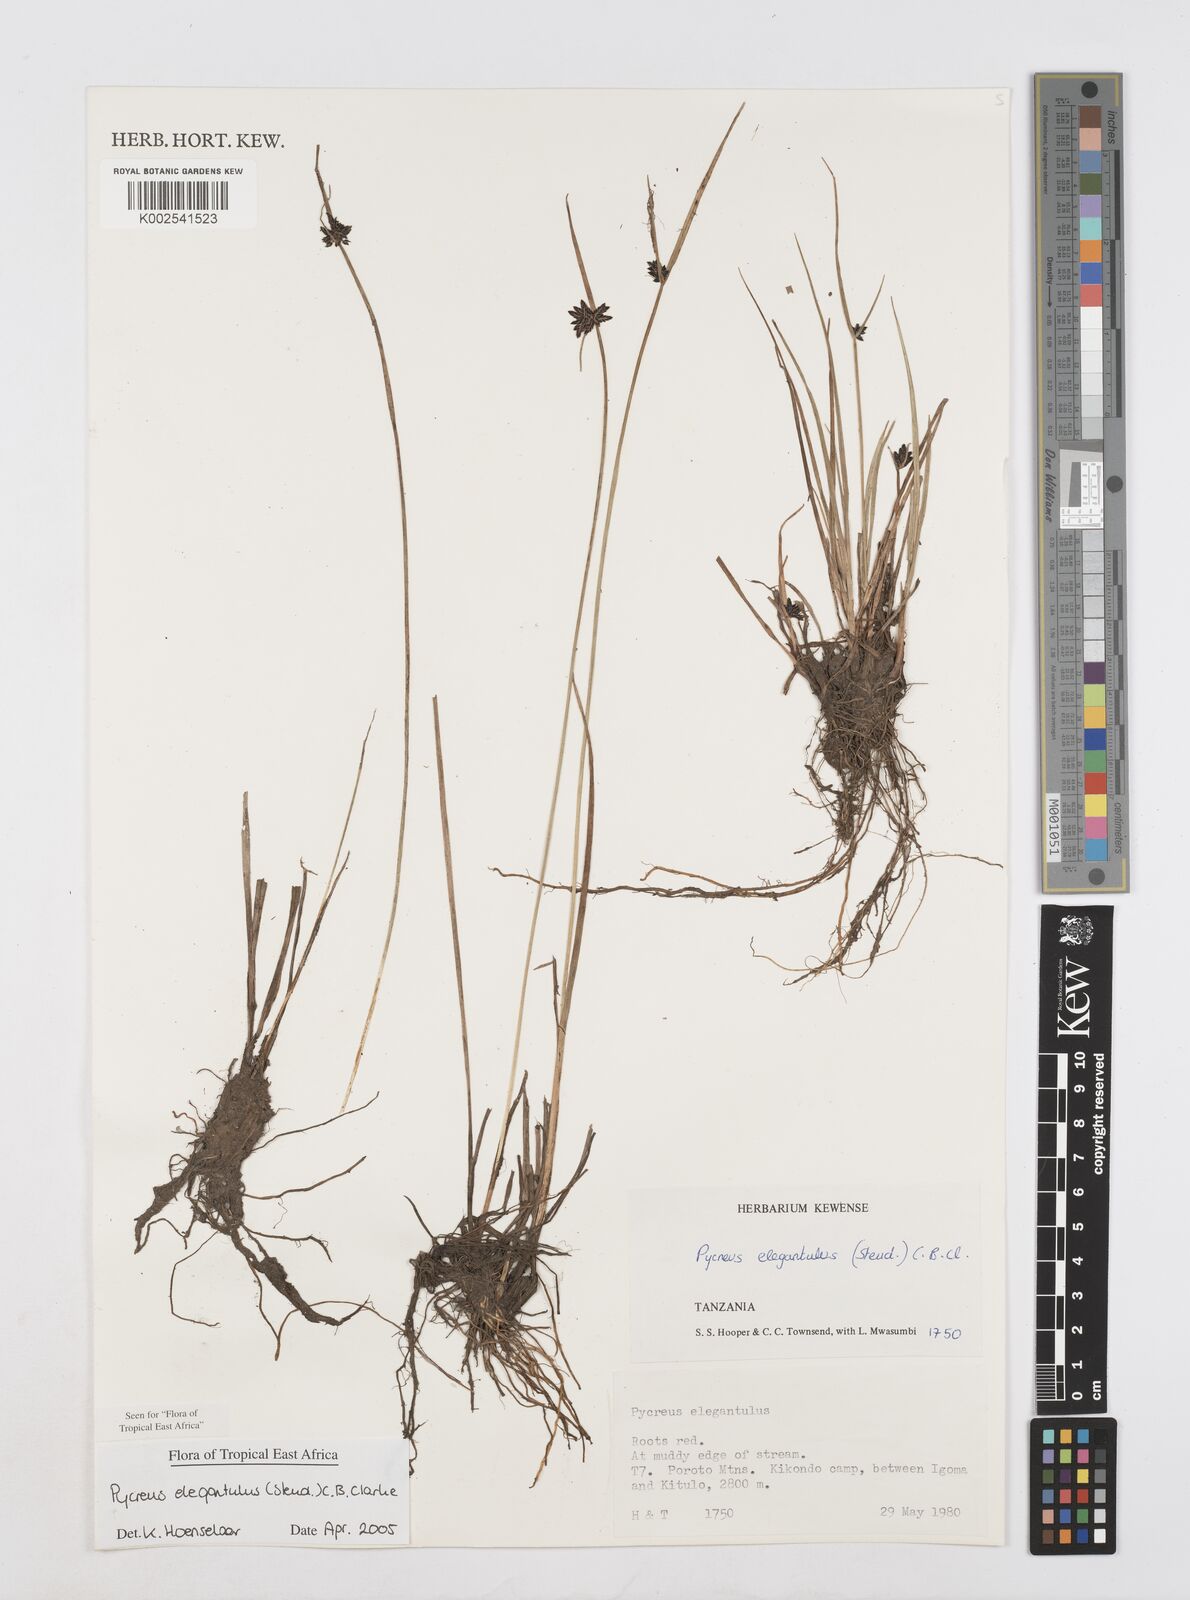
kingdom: Plantae
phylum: Tracheophyta
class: Liliopsida
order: Poales
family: Cyperaceae
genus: Cyperus
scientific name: Cyperus elegantulus
